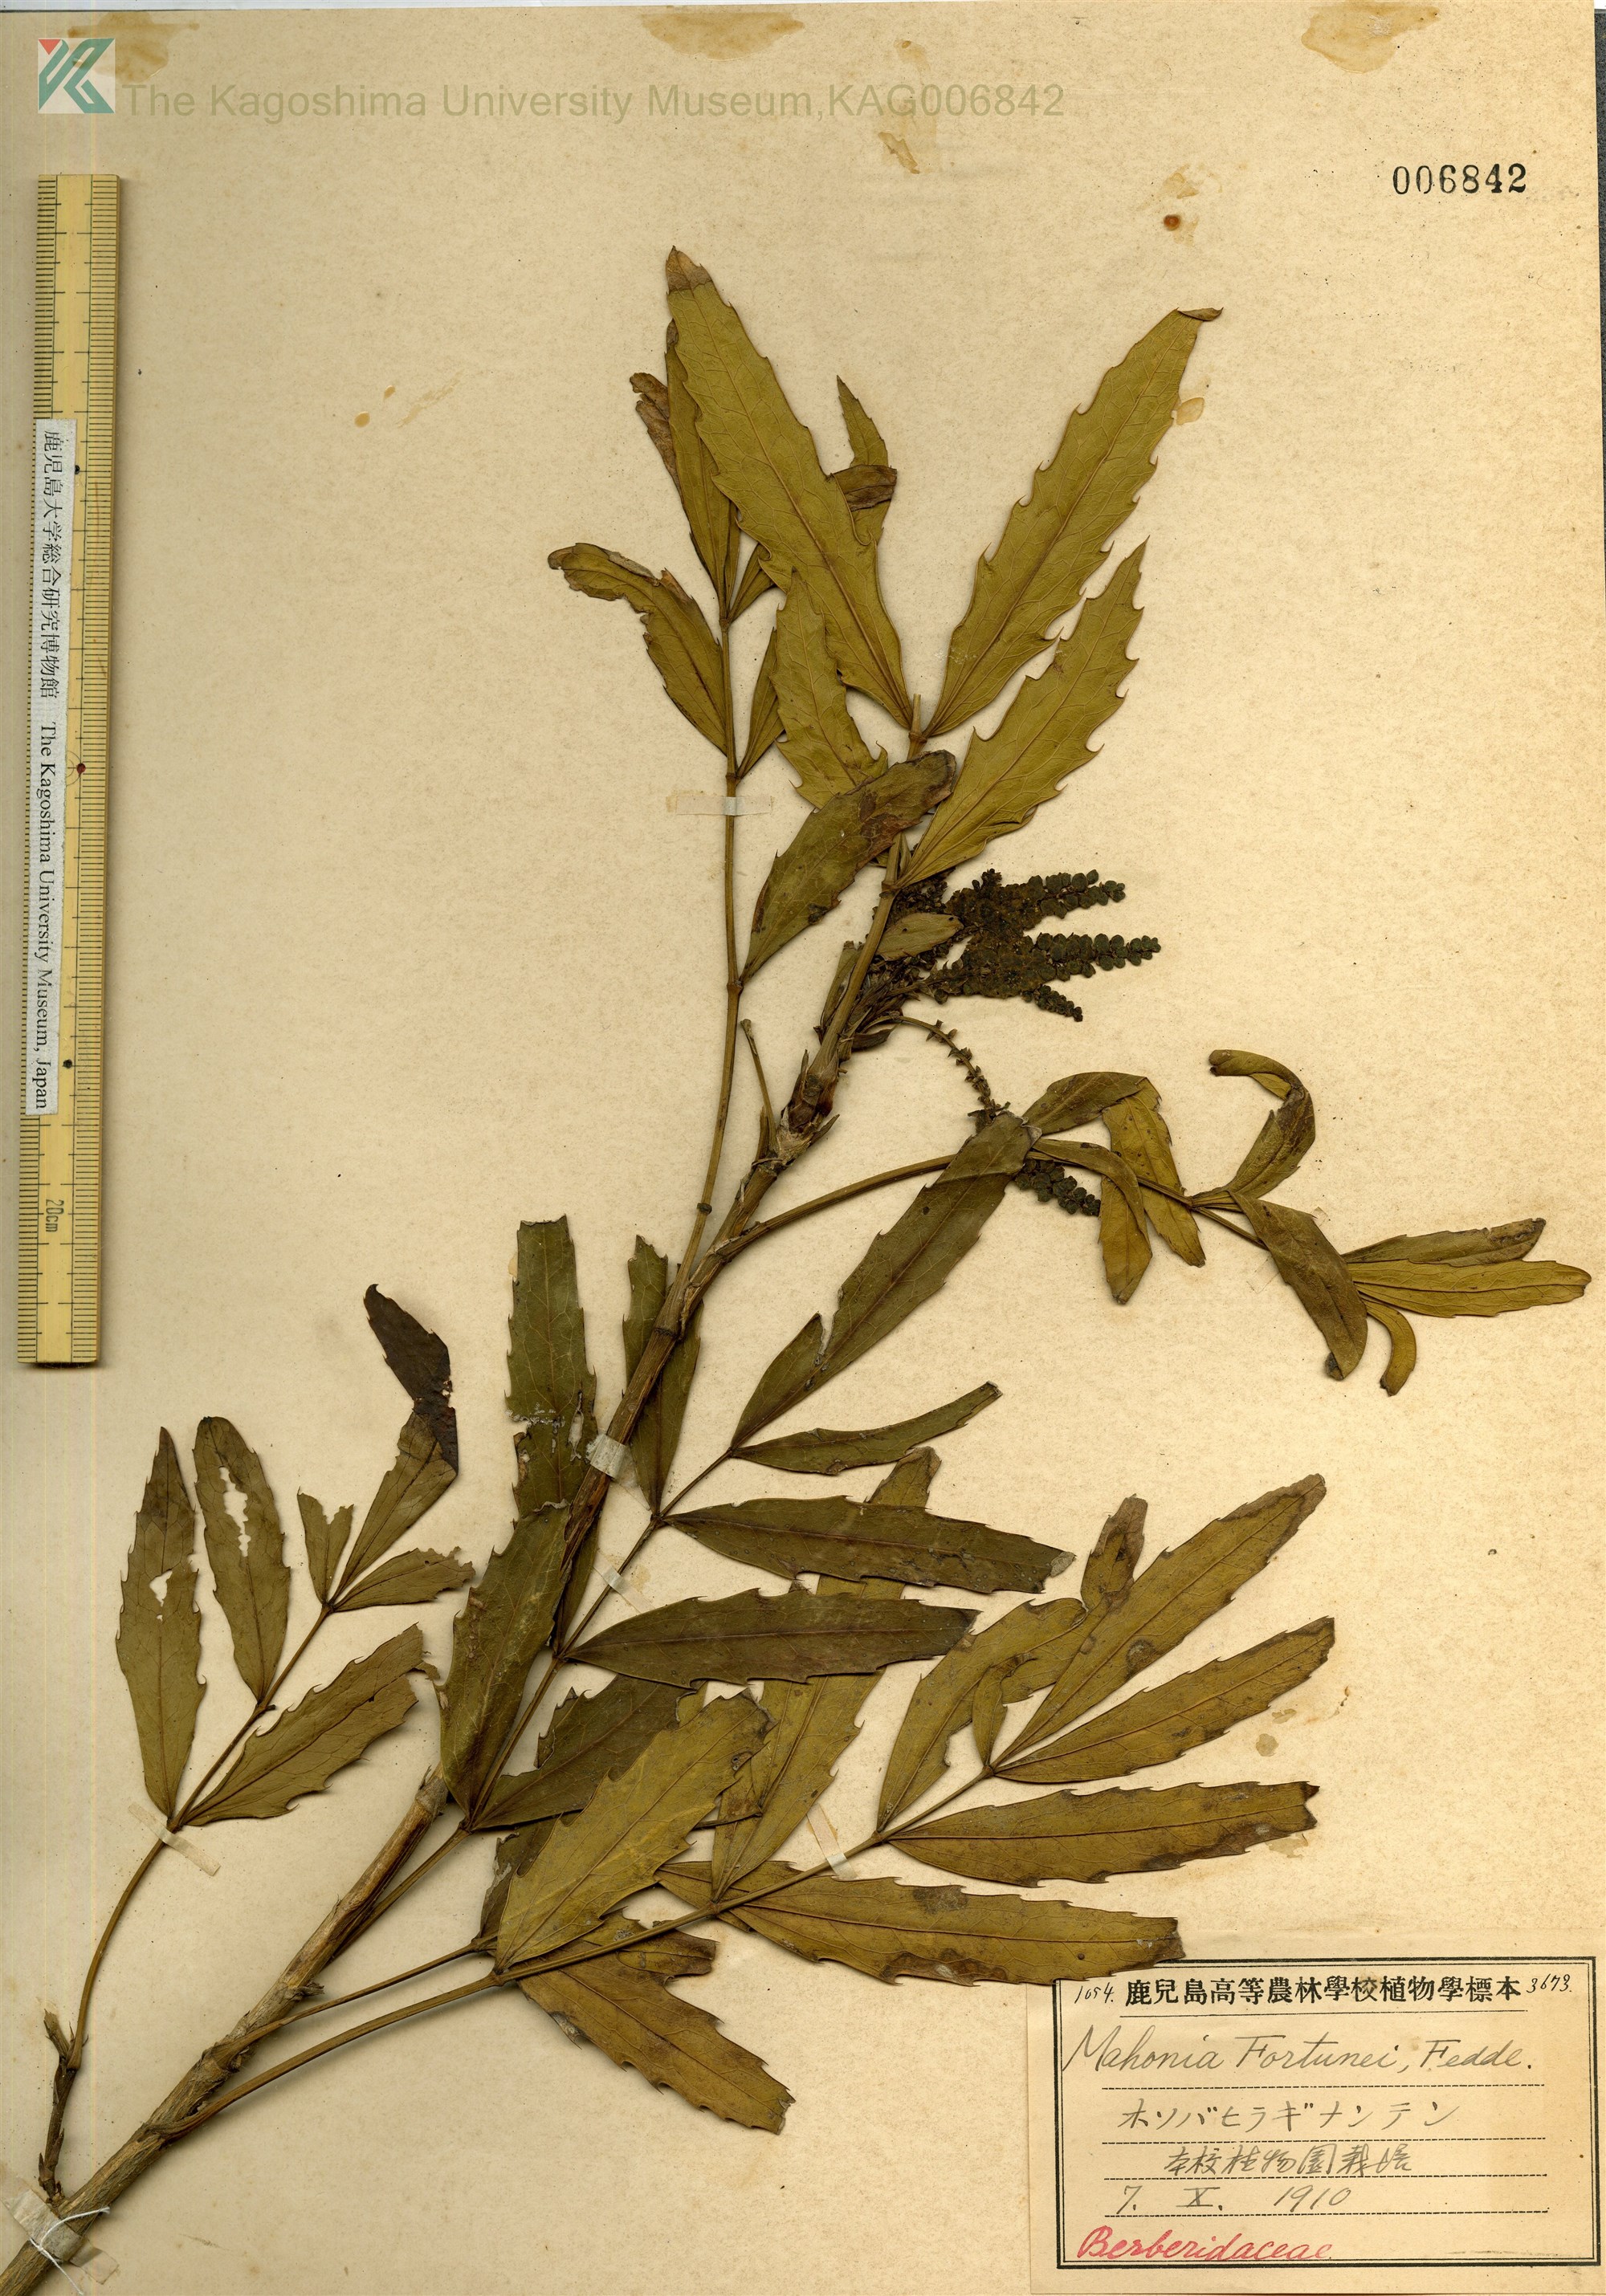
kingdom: Plantae
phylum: Tracheophyta
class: Magnoliopsida
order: Ranunculales
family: Berberidaceae
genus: Mahonia
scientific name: Mahonia fortunei
